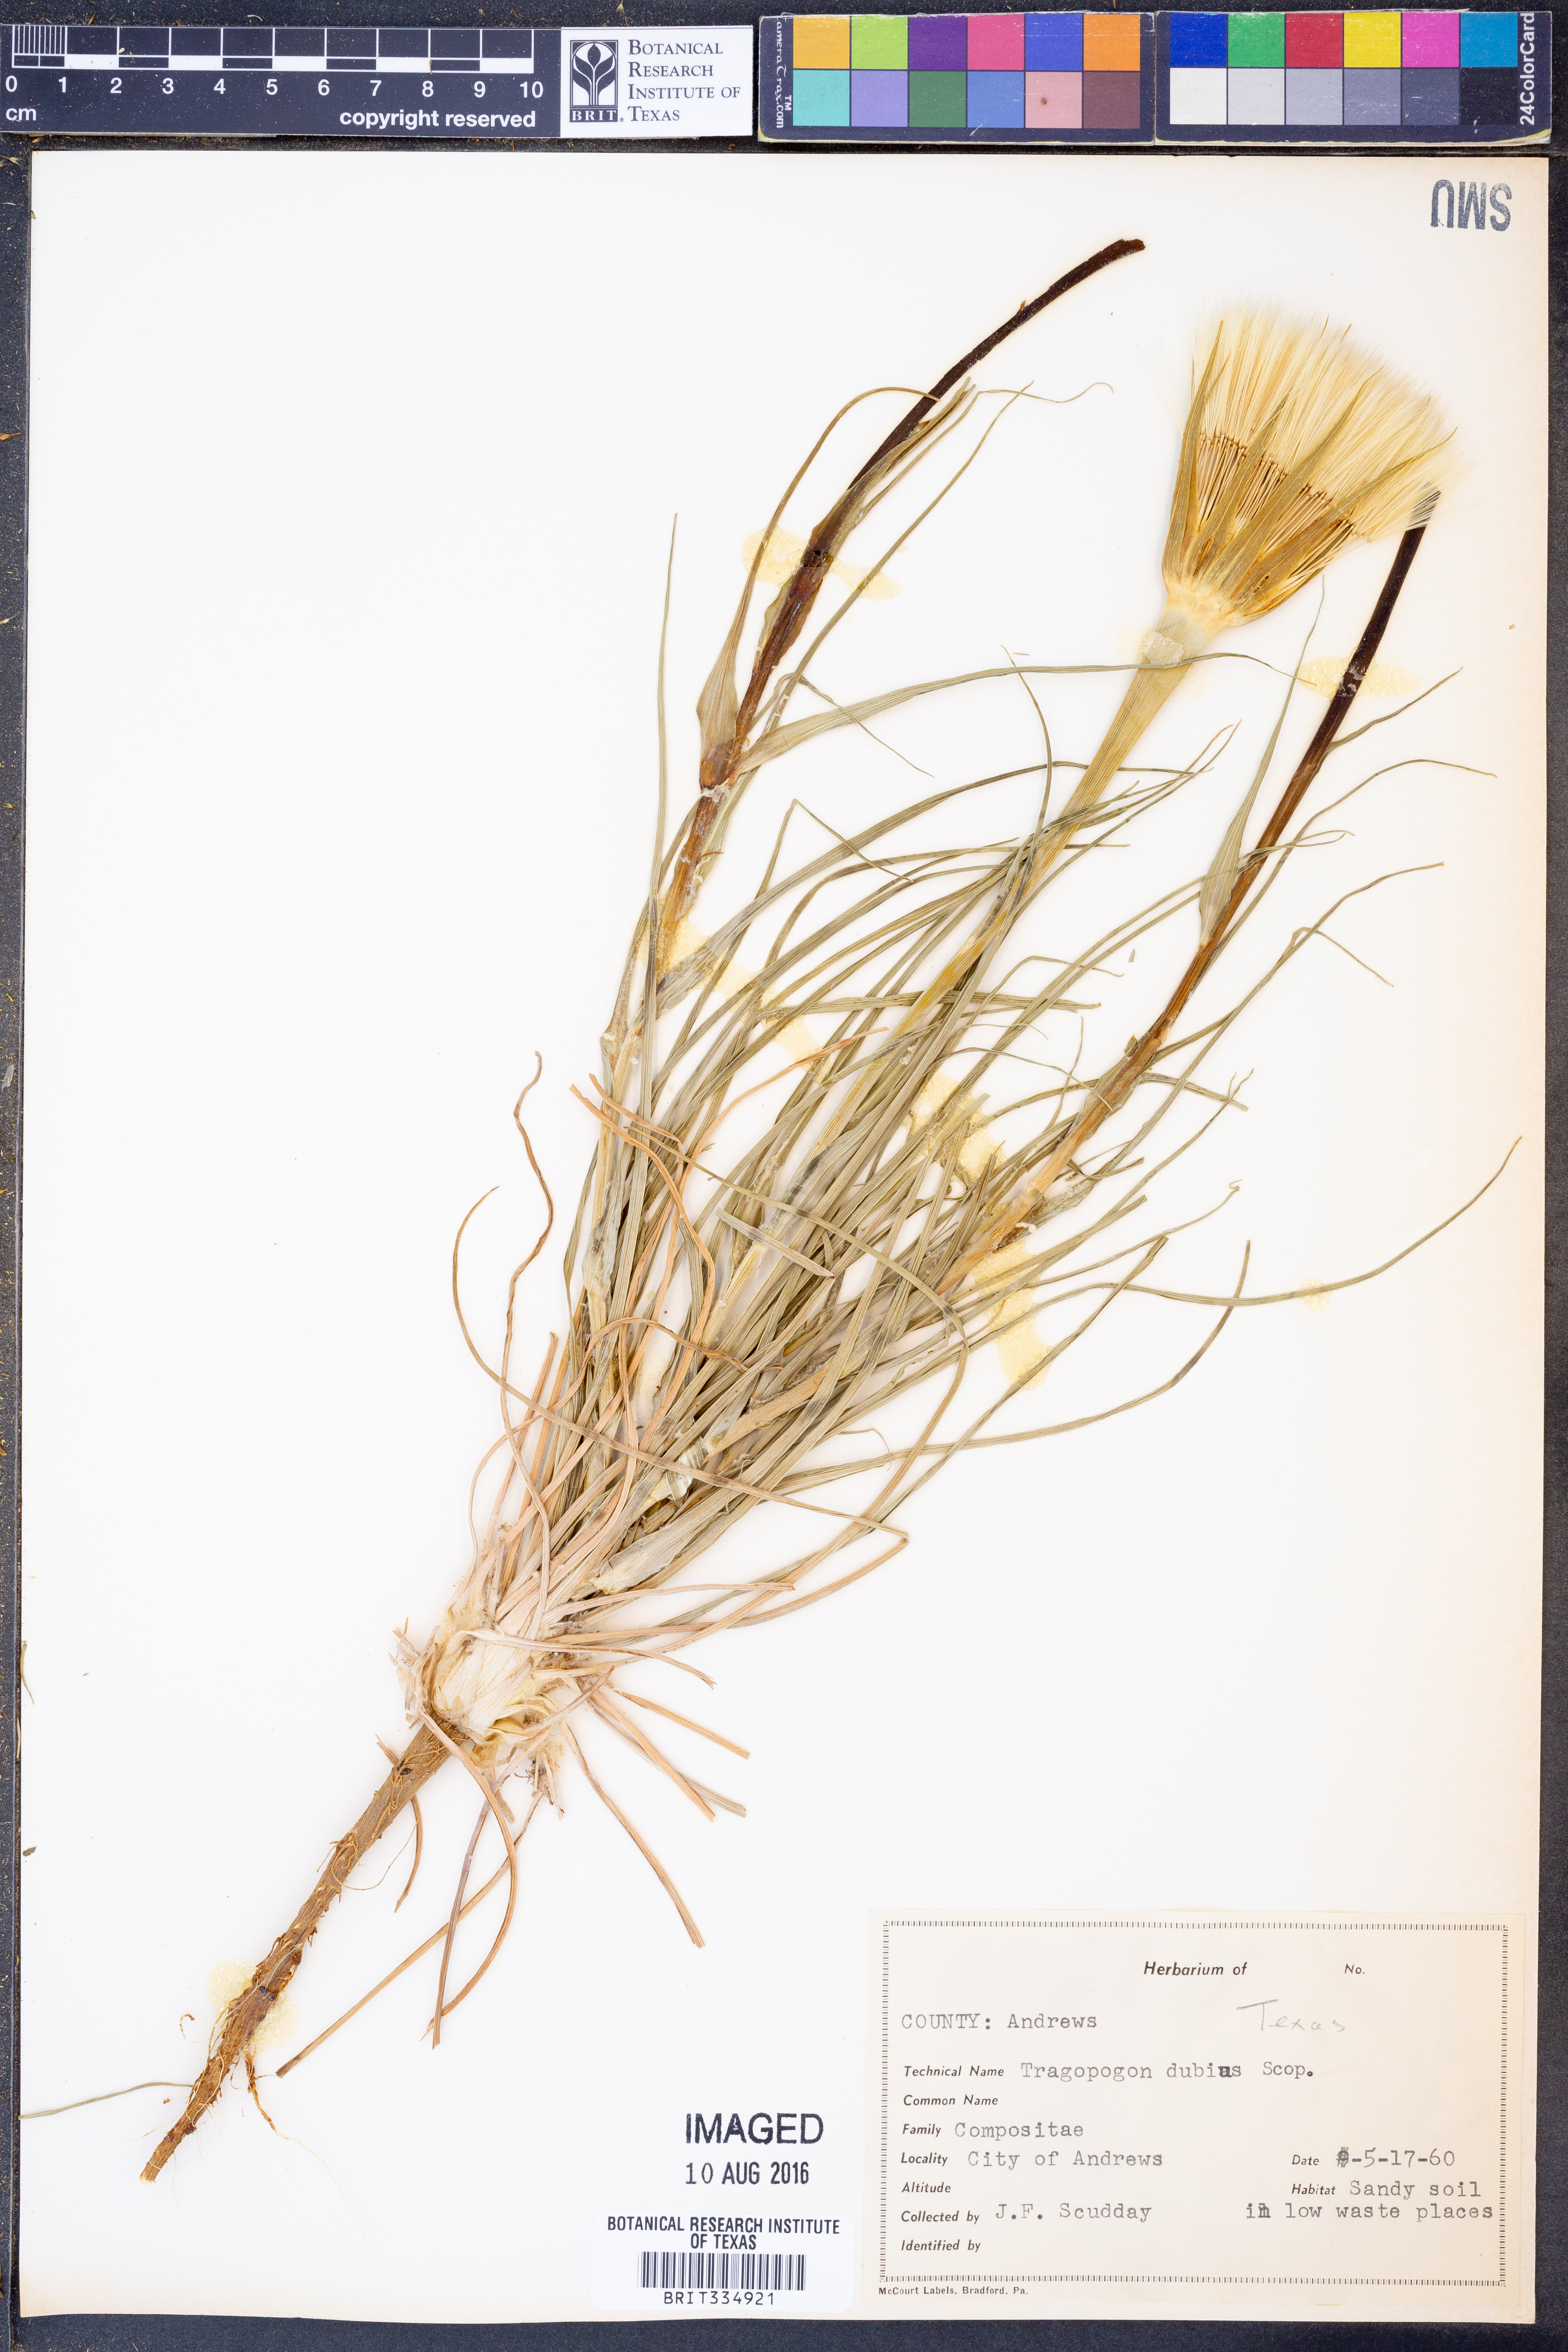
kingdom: Plantae
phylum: Tracheophyta
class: Magnoliopsida
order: Asterales
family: Asteraceae
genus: Tragopogon
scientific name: Tragopogon dubius
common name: Yellow salsify
